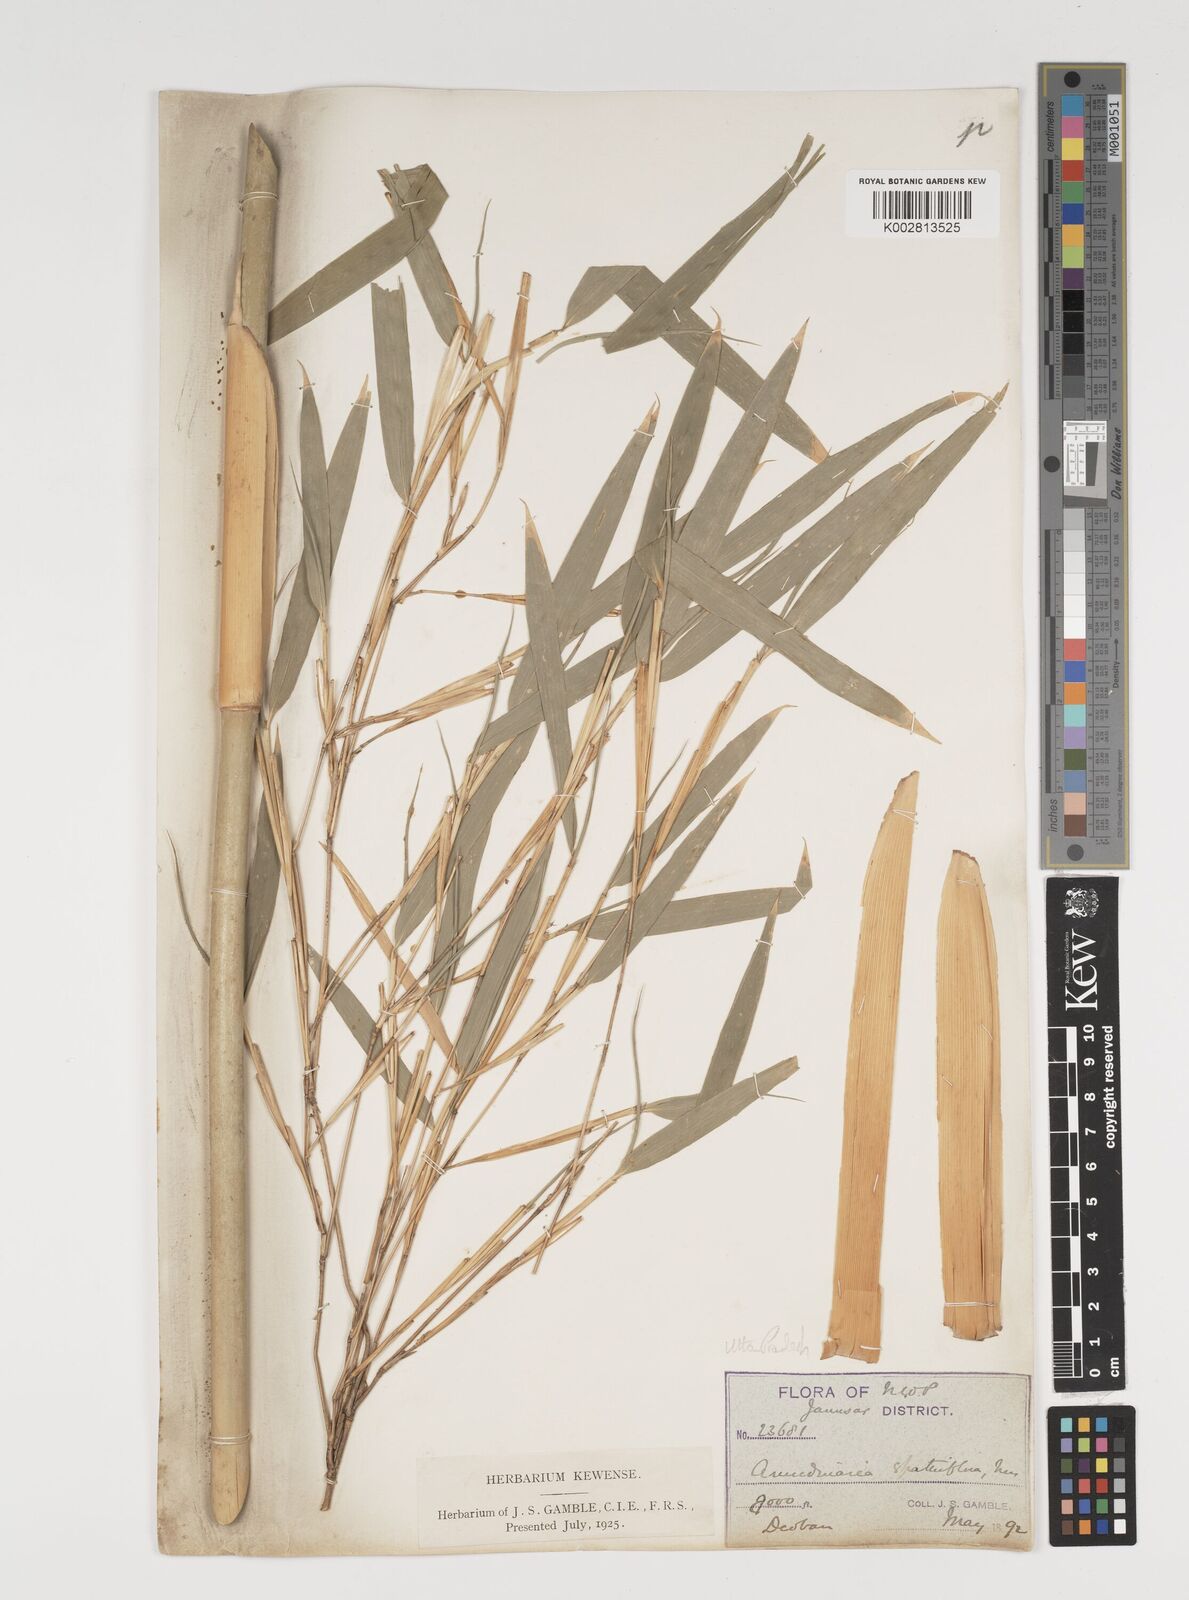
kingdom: Plantae
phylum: Tracheophyta
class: Liliopsida
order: Poales
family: Poaceae
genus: Thamnocalamus
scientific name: Thamnocalamus spathiflorus
